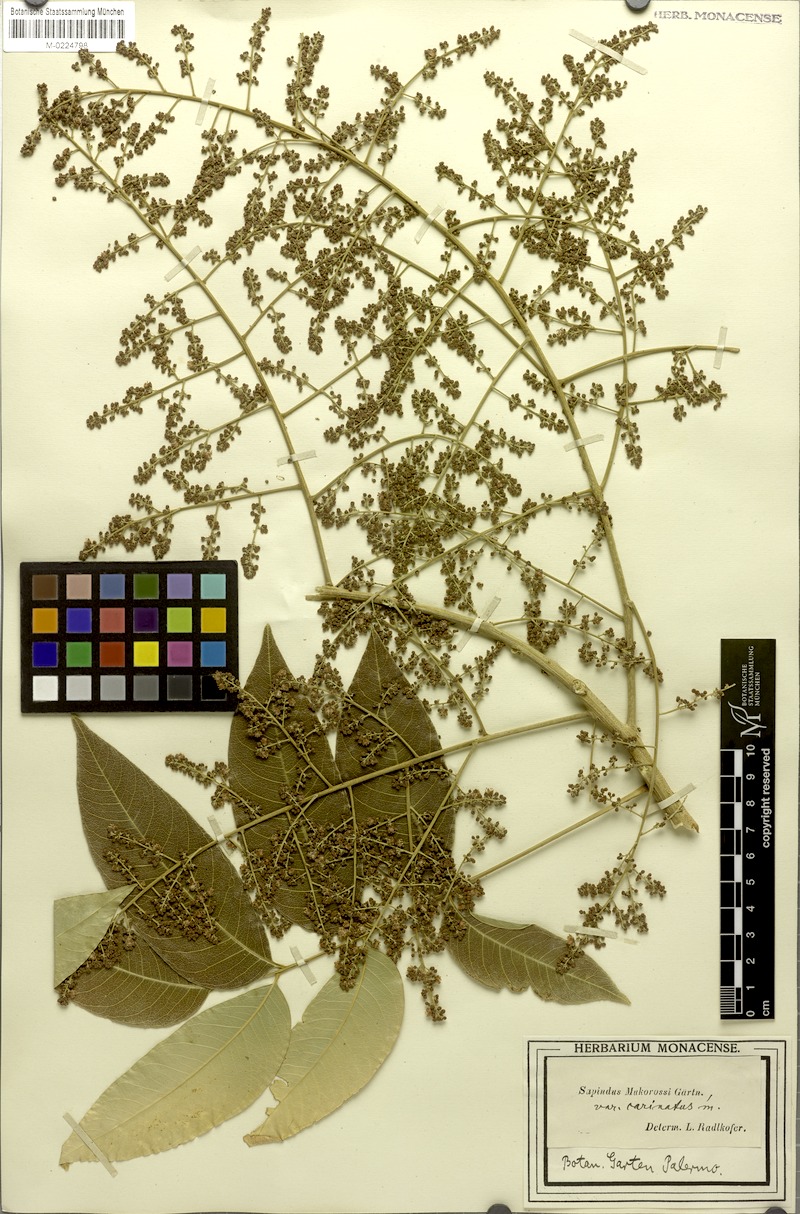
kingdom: Plantae
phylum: Tracheophyta
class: Magnoliopsida
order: Sapindales
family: Sapindaceae
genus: Sapindus
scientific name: Sapindus mukorossi
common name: Chinese soapberry
